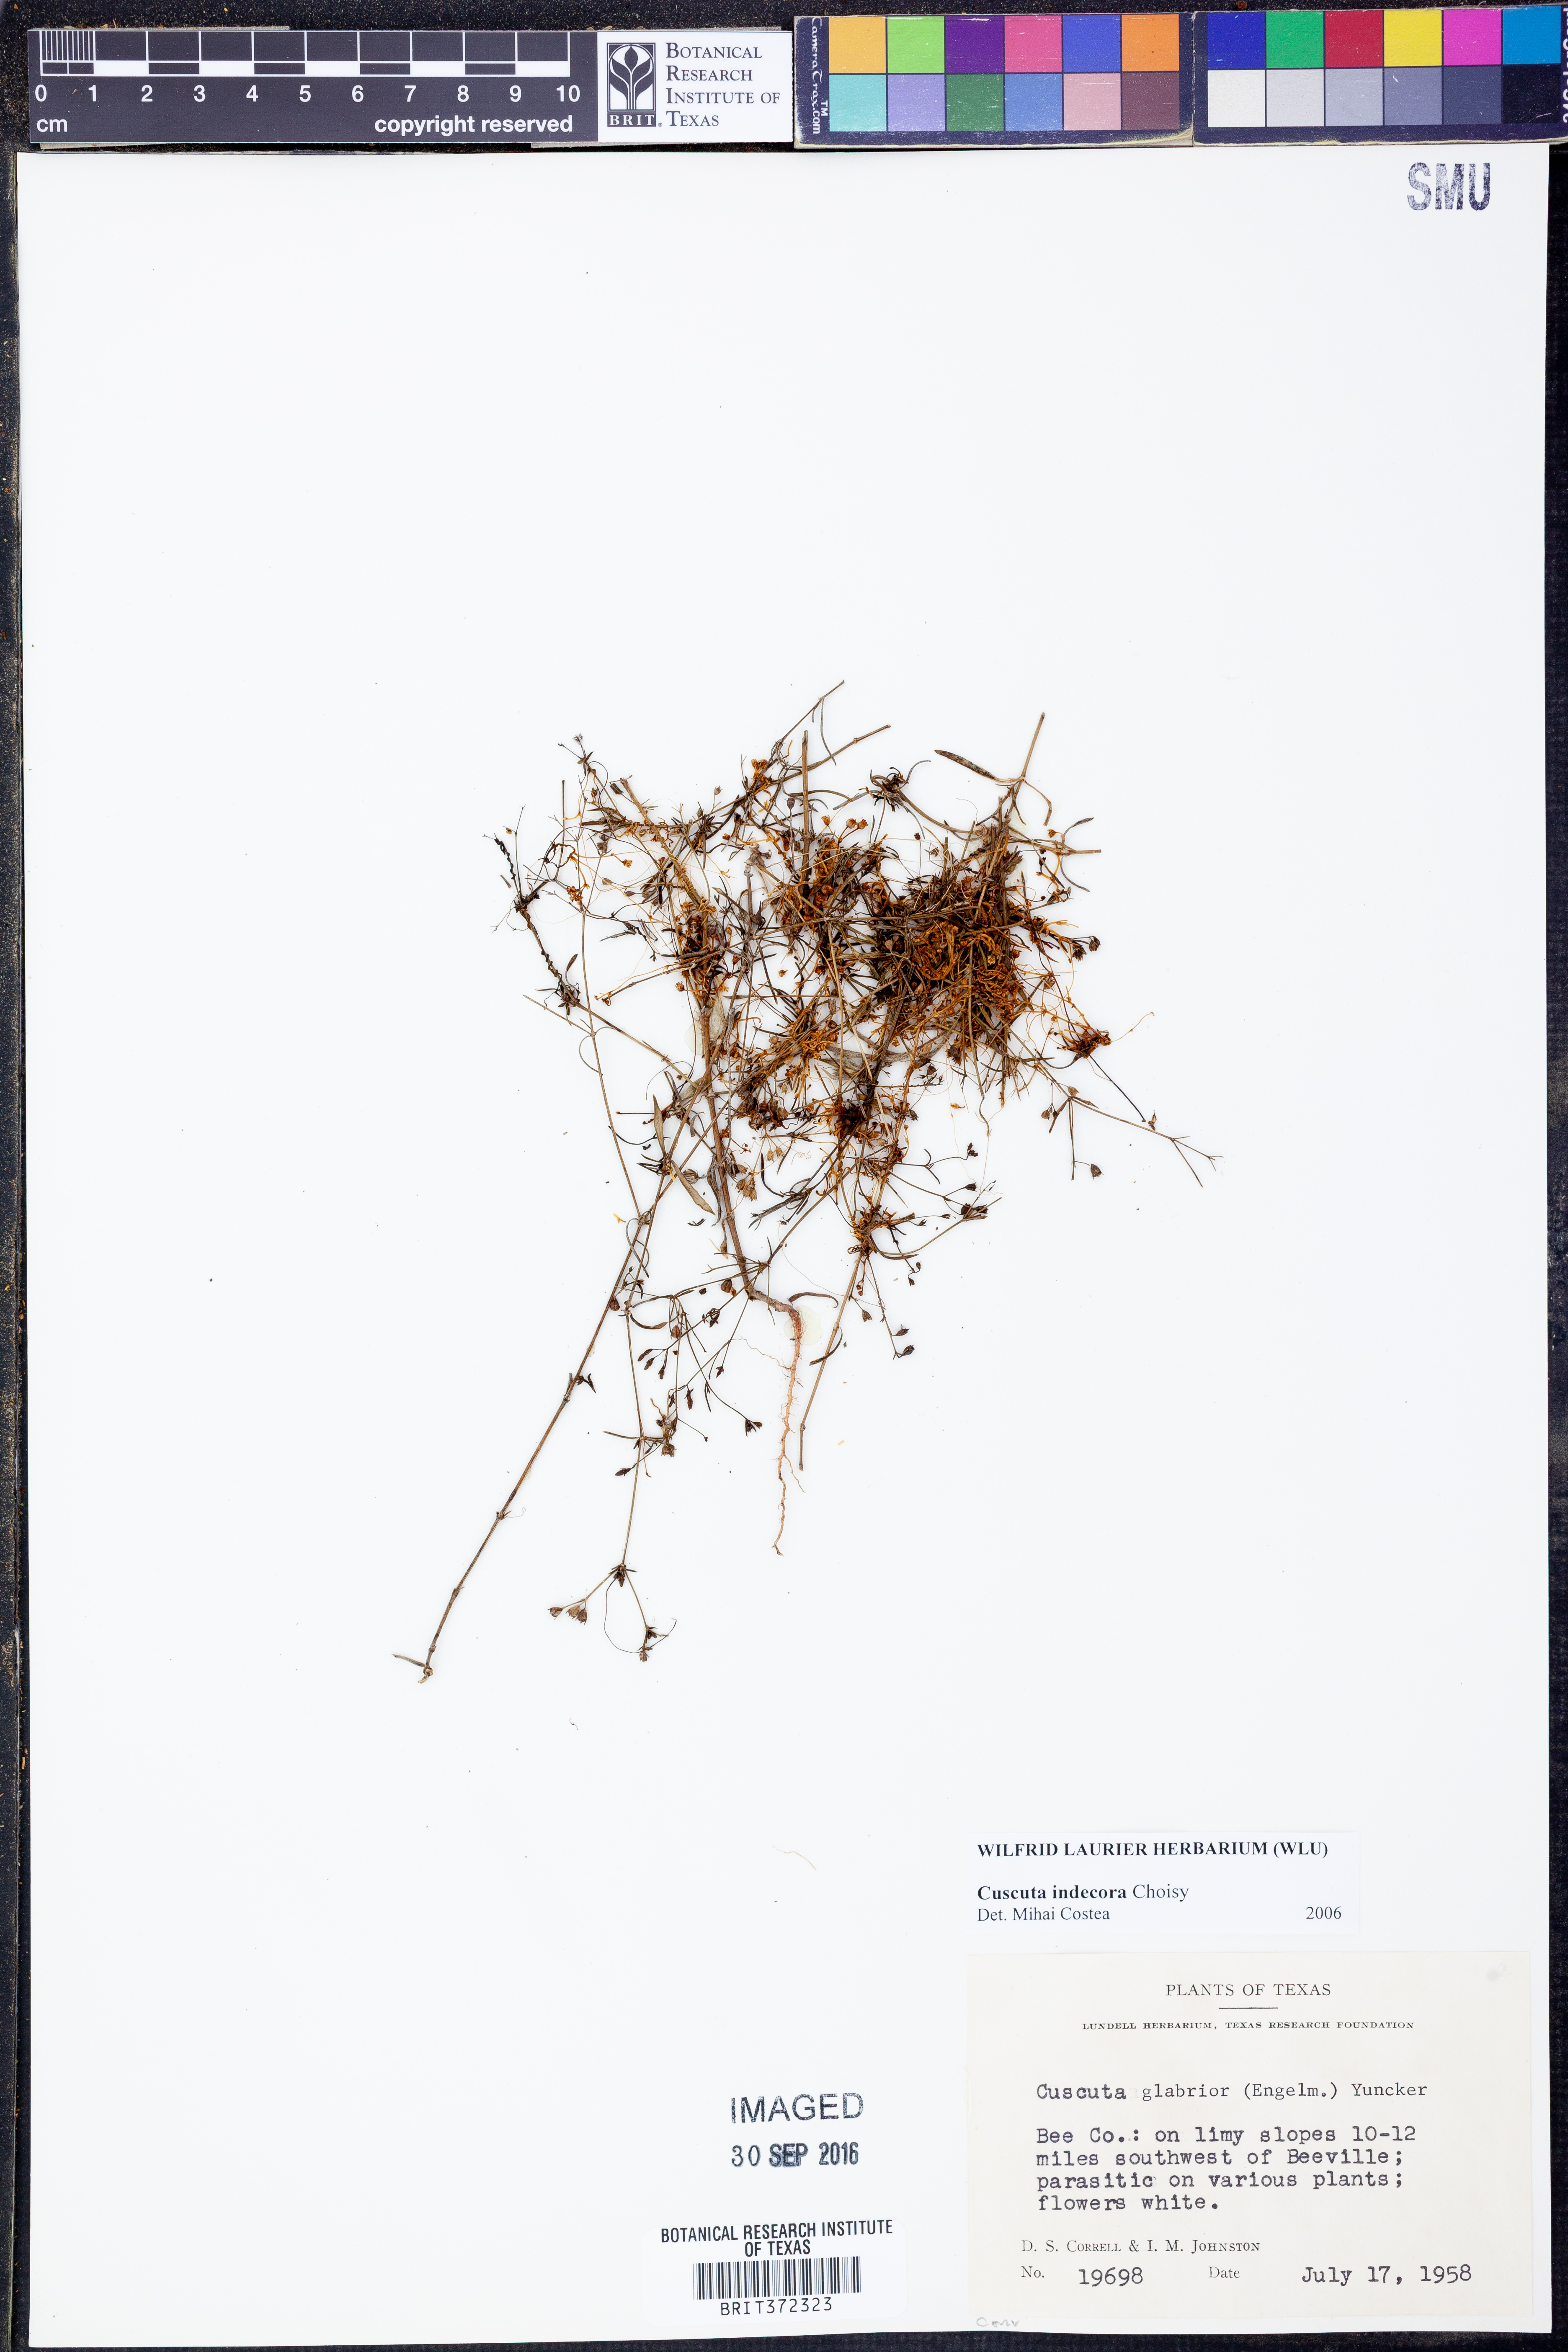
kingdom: Plantae
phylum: Tracheophyta
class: Magnoliopsida
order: Solanales
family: Convolvulaceae
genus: Cuscuta
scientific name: Cuscuta indecora
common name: Large-seed dodder
